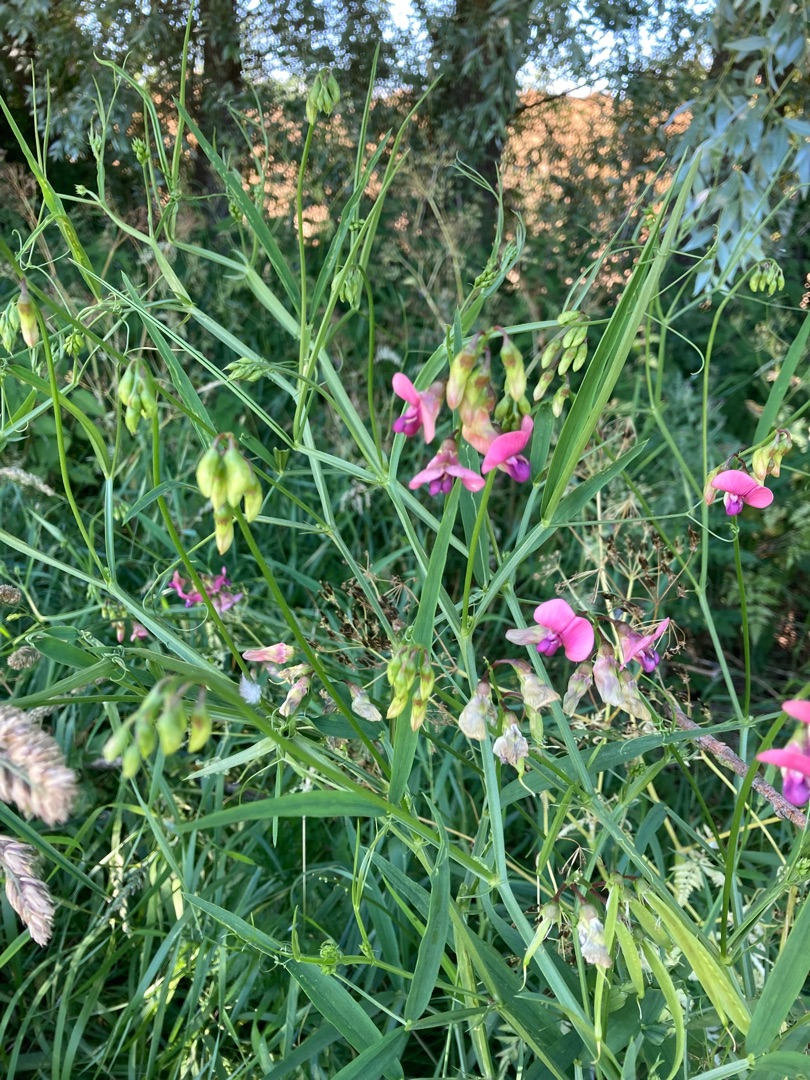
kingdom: Plantae
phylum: Tracheophyta
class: Magnoliopsida
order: Fabales
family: Fabaceae
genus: Lathyrus
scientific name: Lathyrus sylvestris
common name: Skov-fladbælg
